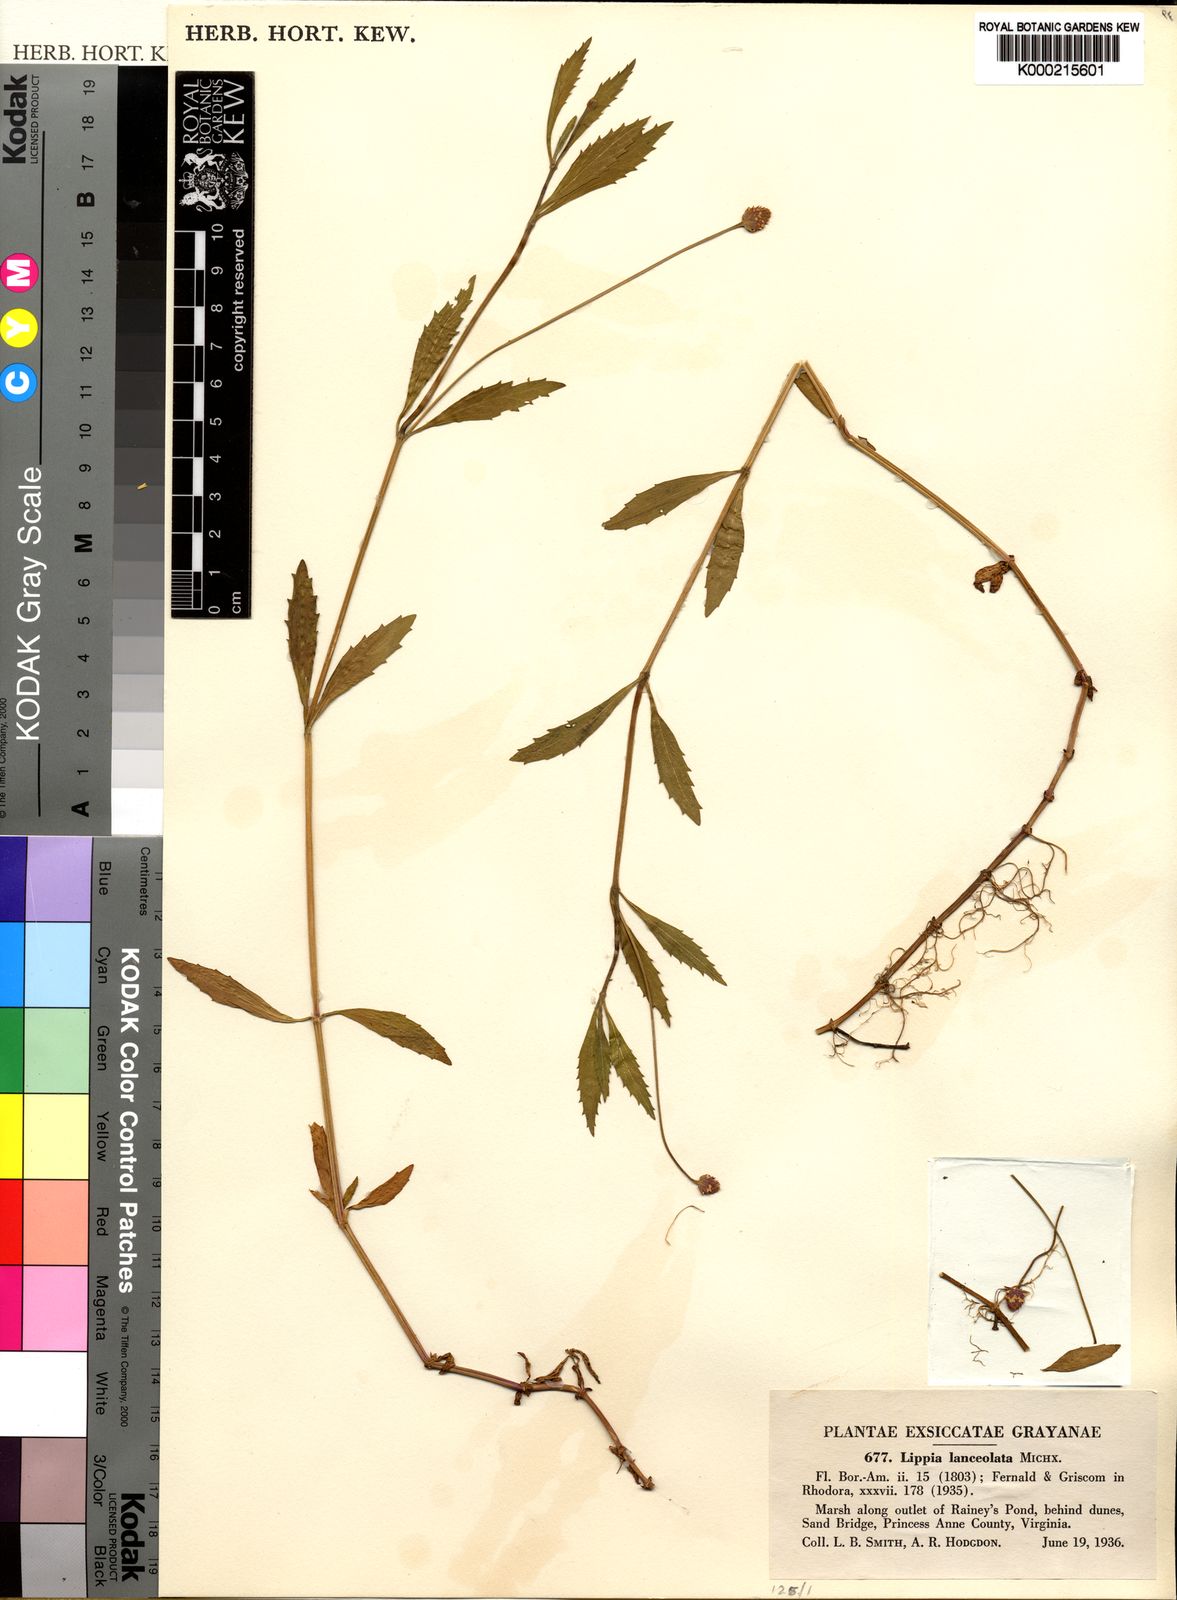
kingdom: Plantae
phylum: Tracheophyta
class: Magnoliopsida
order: Lamiales
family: Verbenaceae
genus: Phyla
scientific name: Phyla lanceolata
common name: Northern fogfruit
